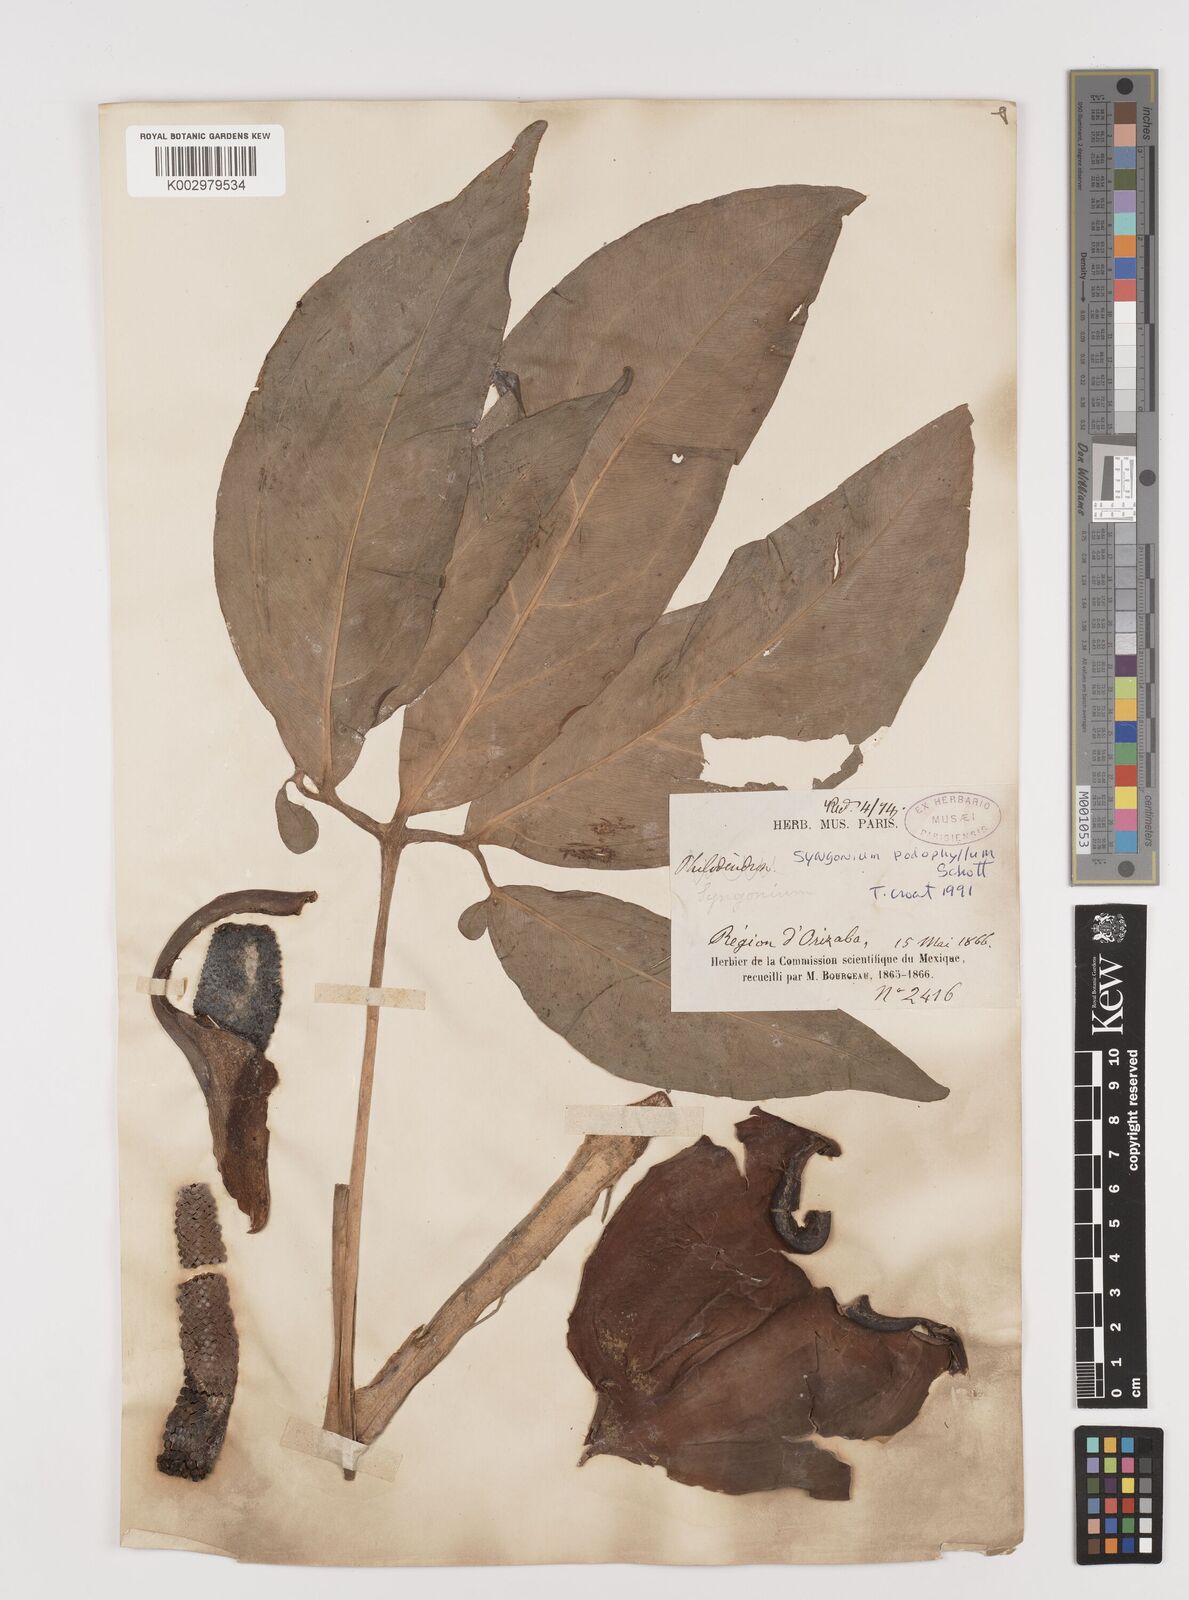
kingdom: Plantae
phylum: Tracheophyta
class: Liliopsida
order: Alismatales
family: Araceae
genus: Syngonium
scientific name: Syngonium podophyllum
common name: American evergreen
